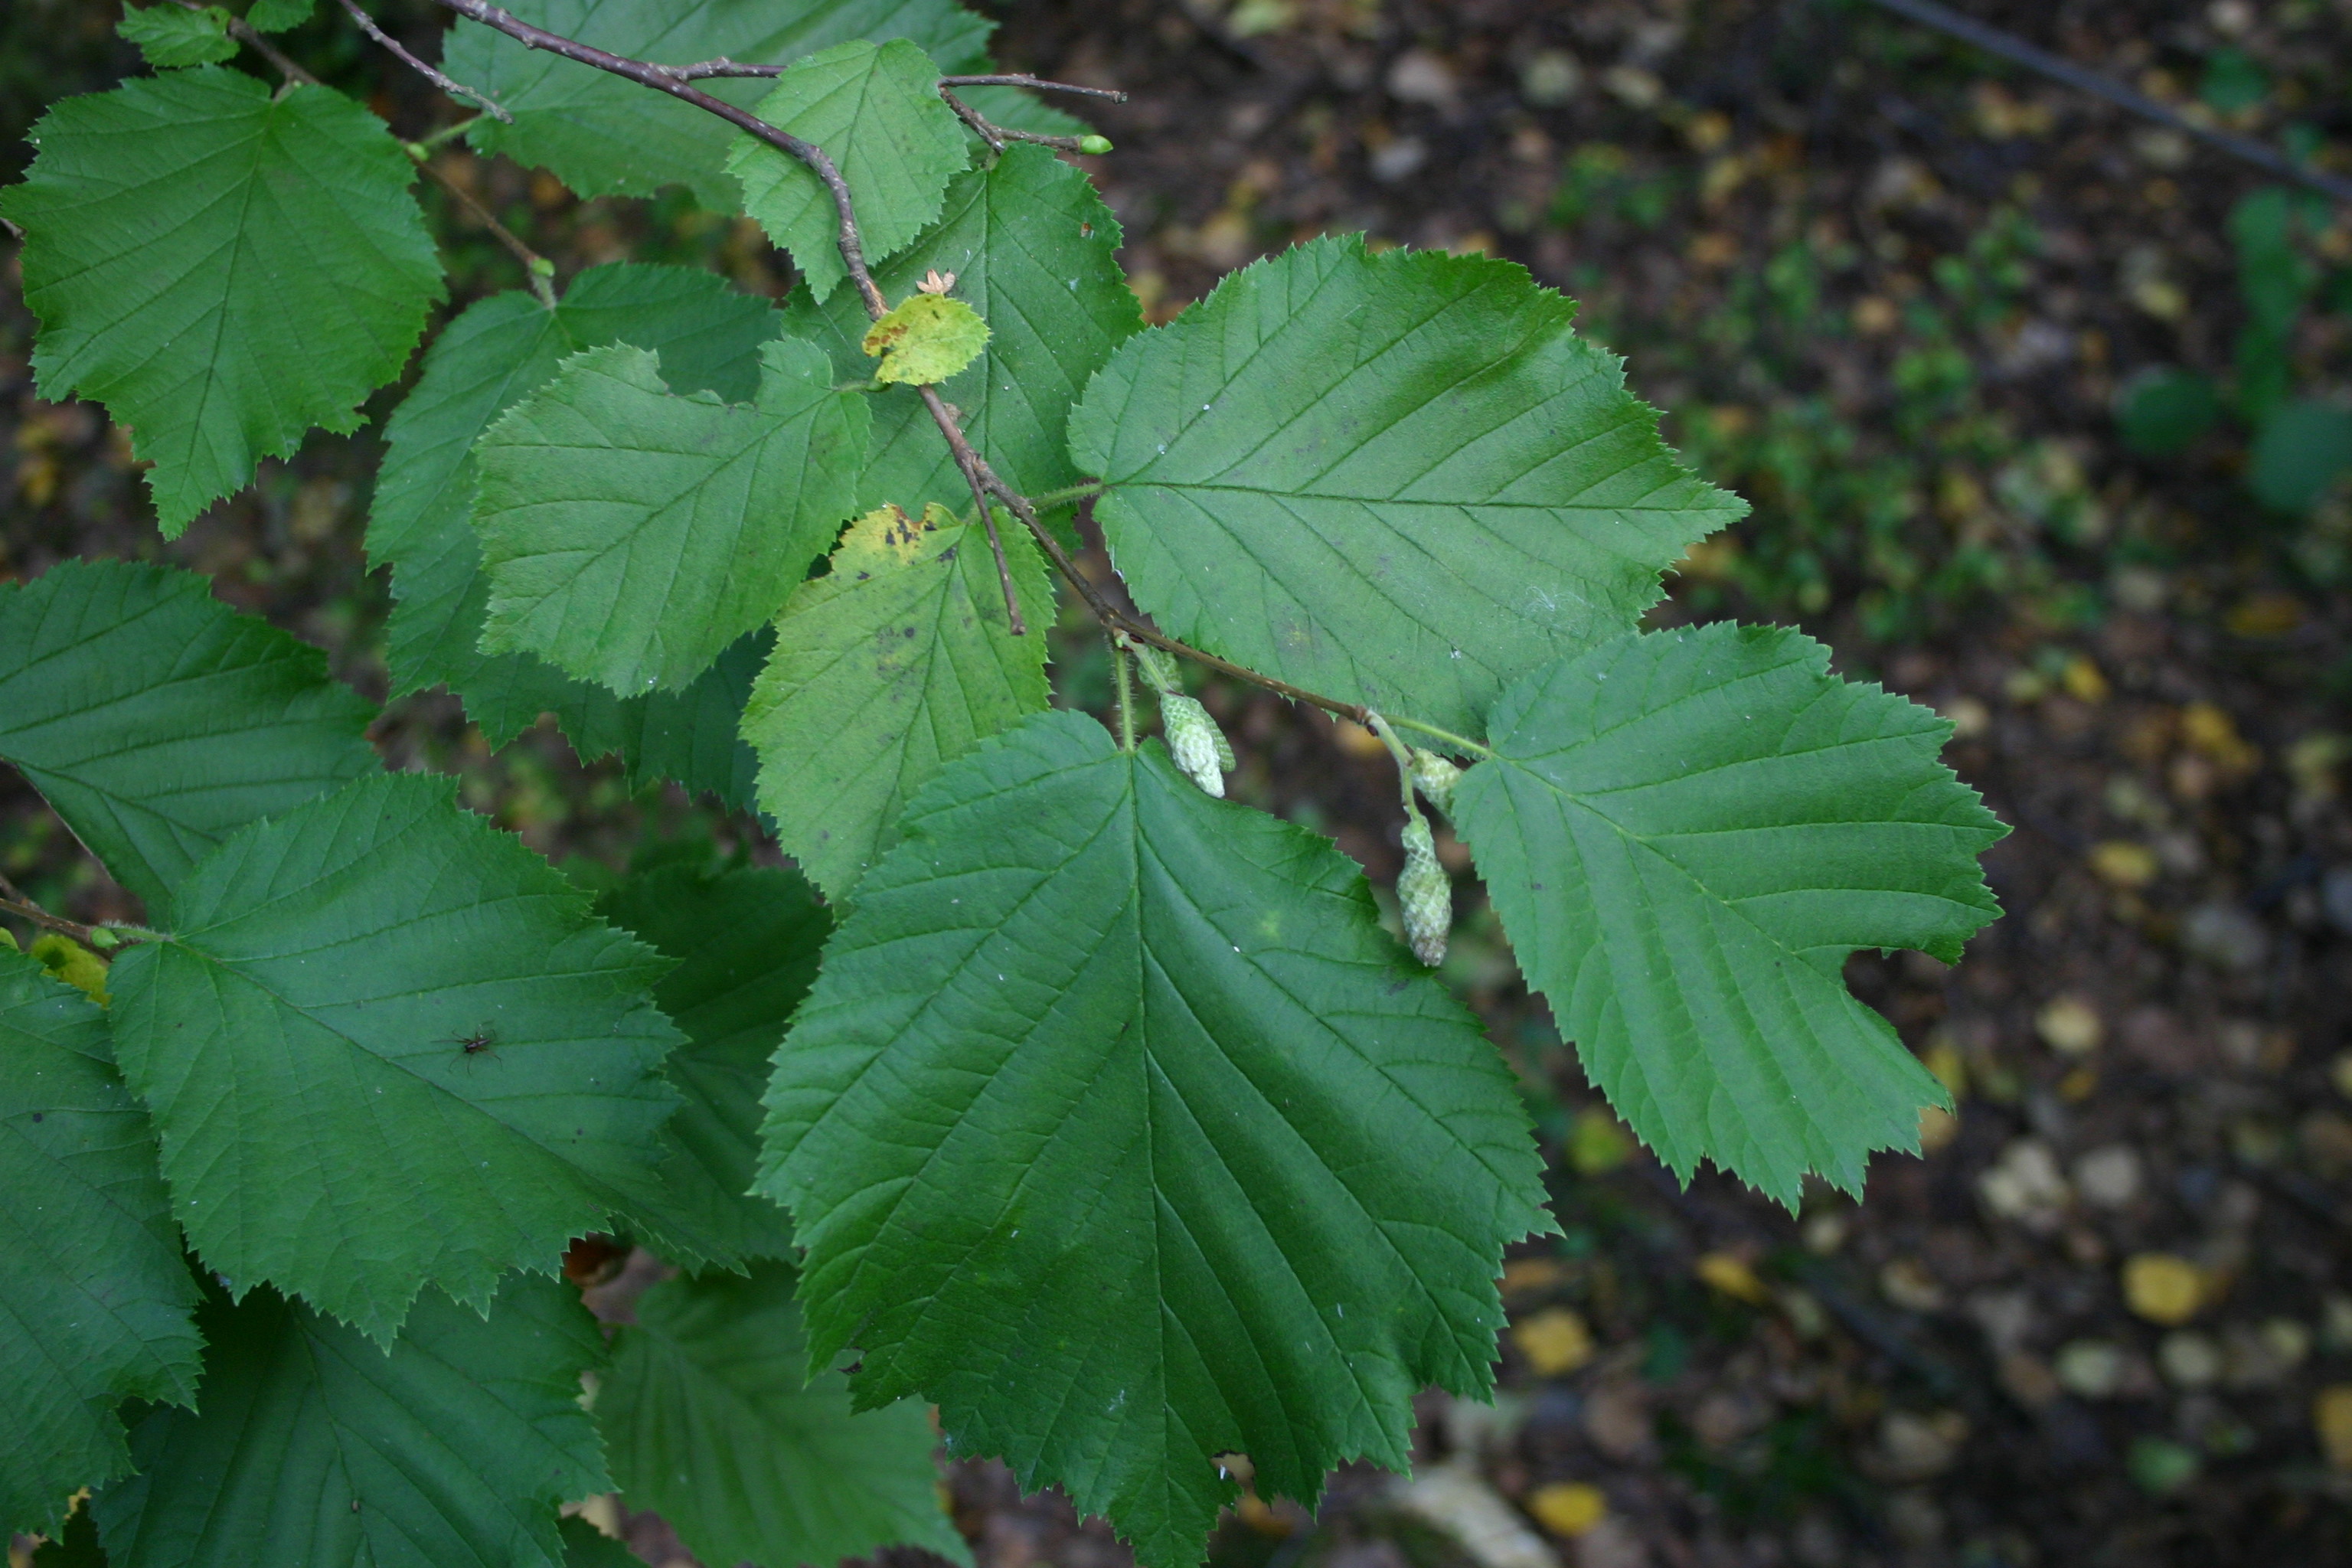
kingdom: Plantae
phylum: Tracheophyta
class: Magnoliopsida
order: Fagales
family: Betulaceae
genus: Corylus
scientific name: Corylus avellana
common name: European hazel
